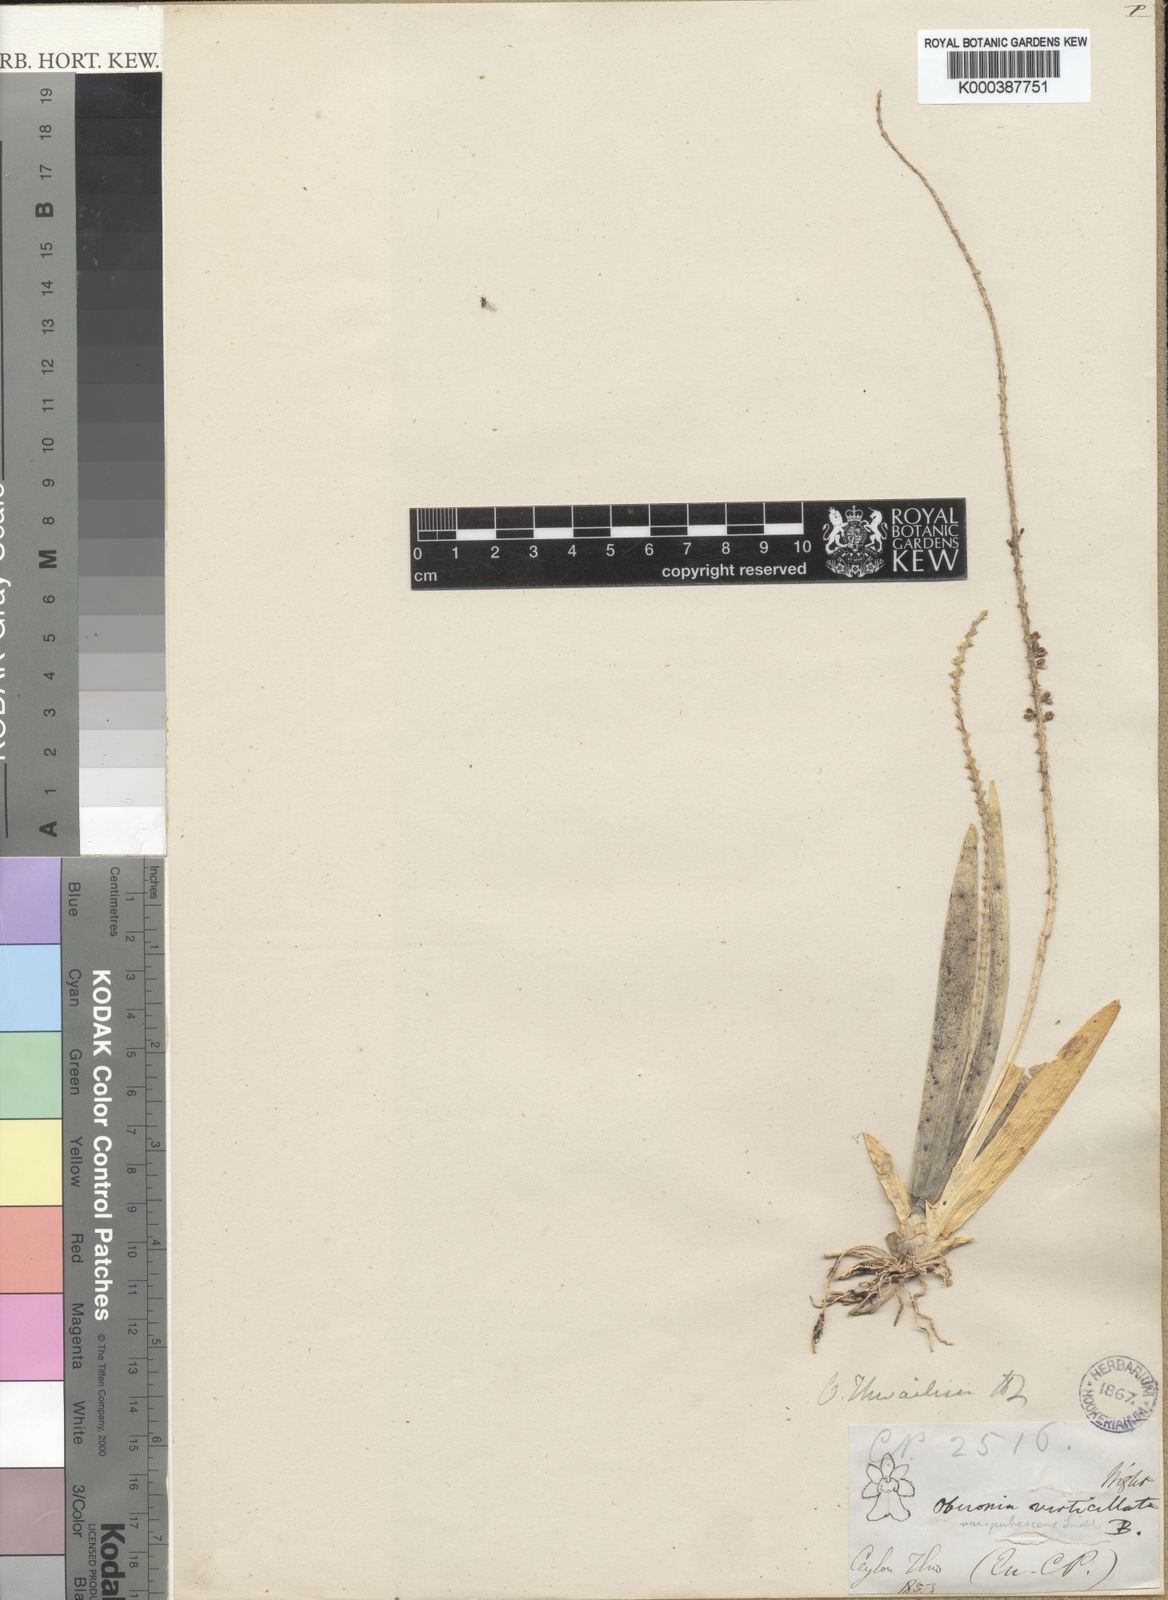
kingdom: Plantae
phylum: Tracheophyta
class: Liliopsida
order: Asparagales
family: Orchidaceae
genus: Oberonia
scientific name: Oberonia thwaitesii
